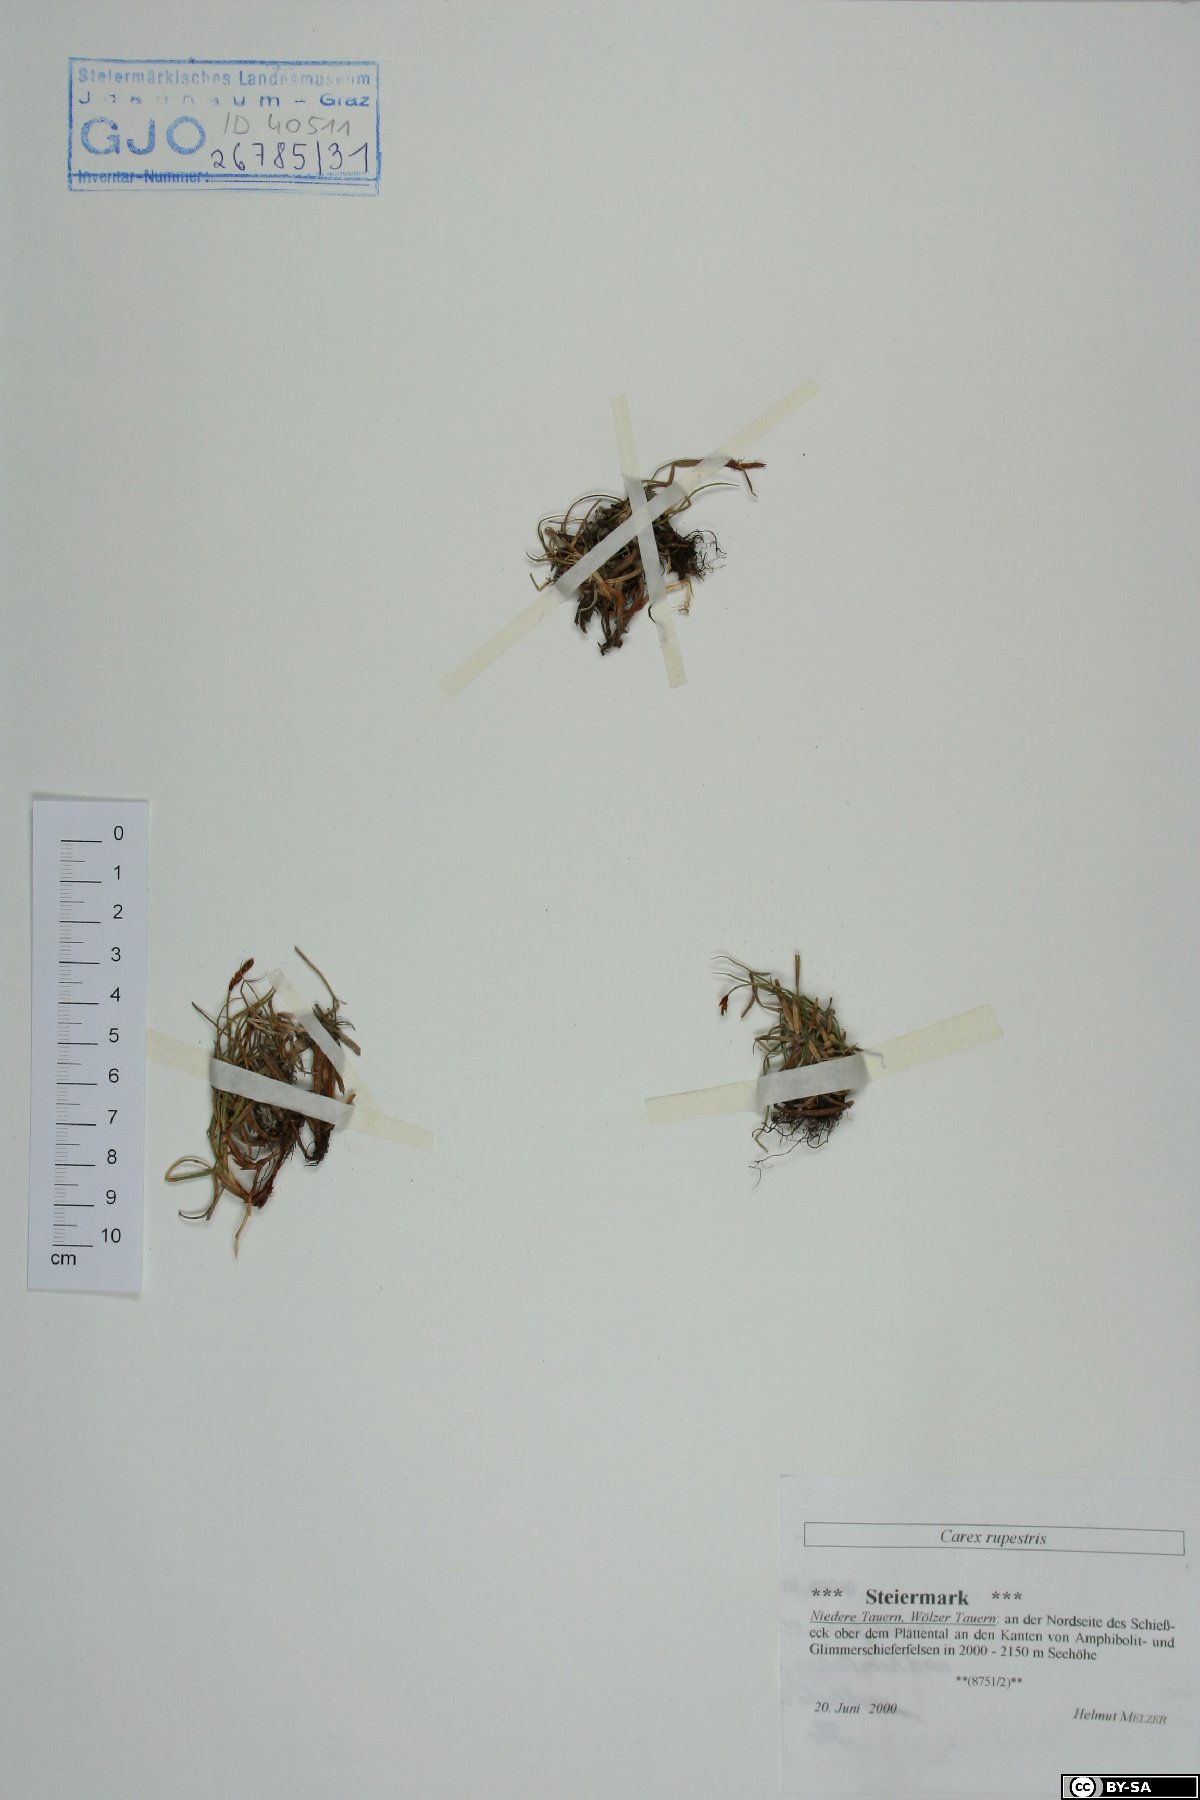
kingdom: Plantae
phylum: Tracheophyta
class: Liliopsida
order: Poales
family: Cyperaceae
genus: Carex
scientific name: Carex rupestris
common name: Rock sedge
